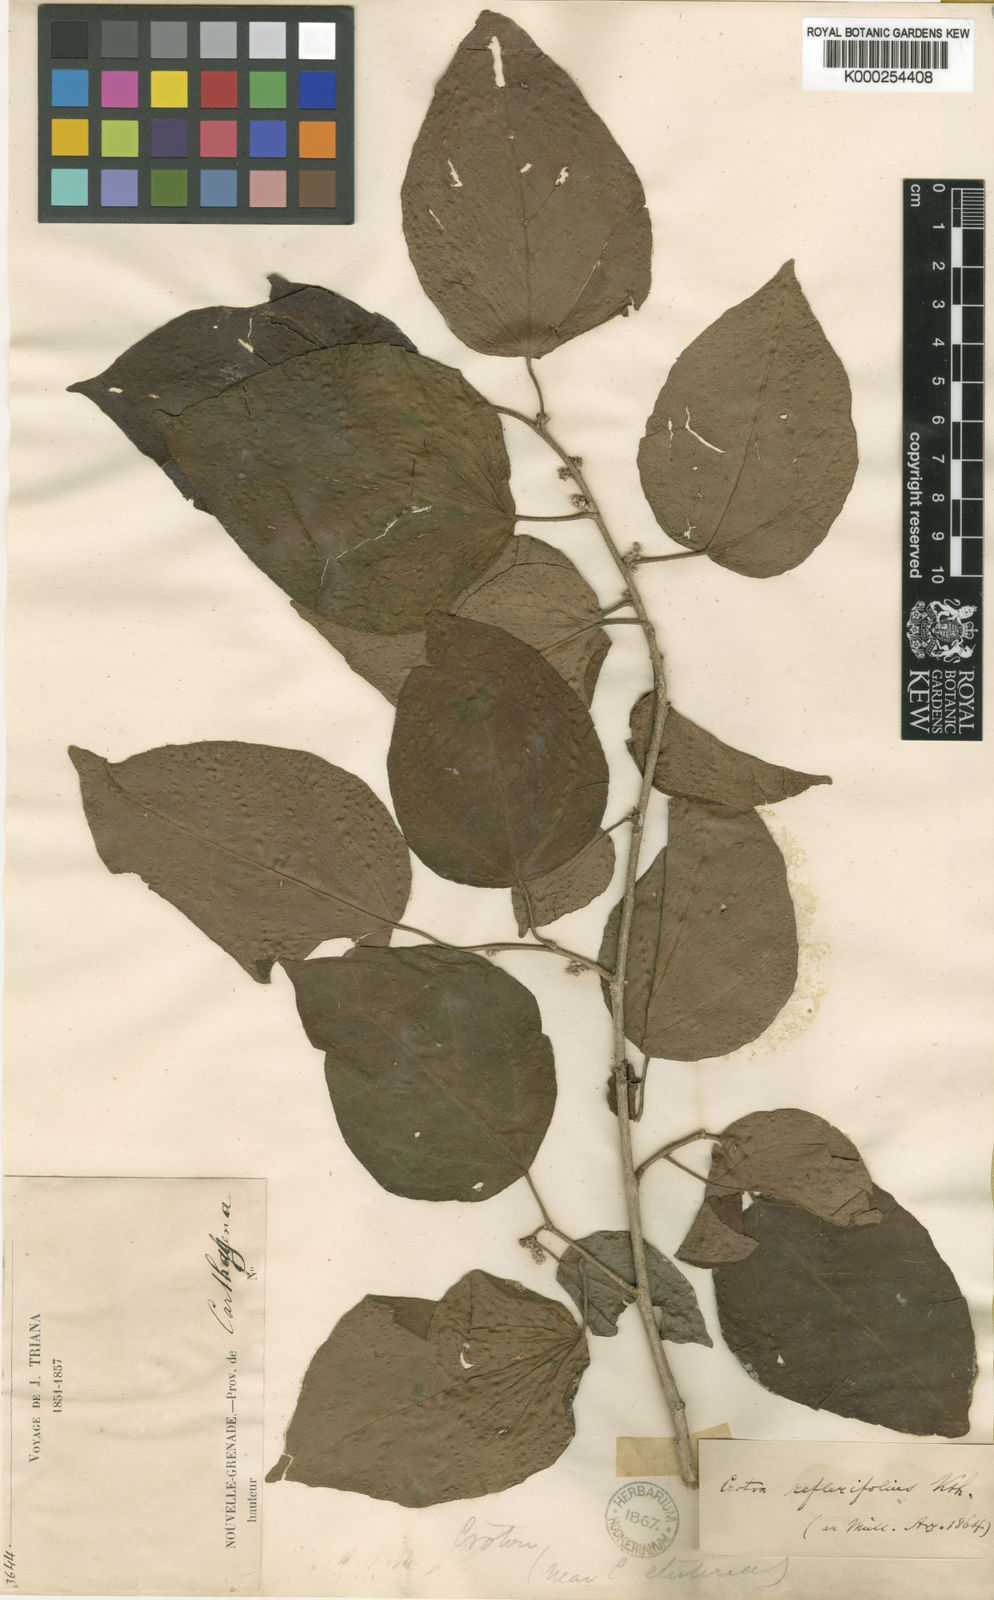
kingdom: Plantae
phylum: Tracheophyta
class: Magnoliopsida
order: Malpighiales
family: Euphorbiaceae
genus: Croton
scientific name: Croton reflexifolius
